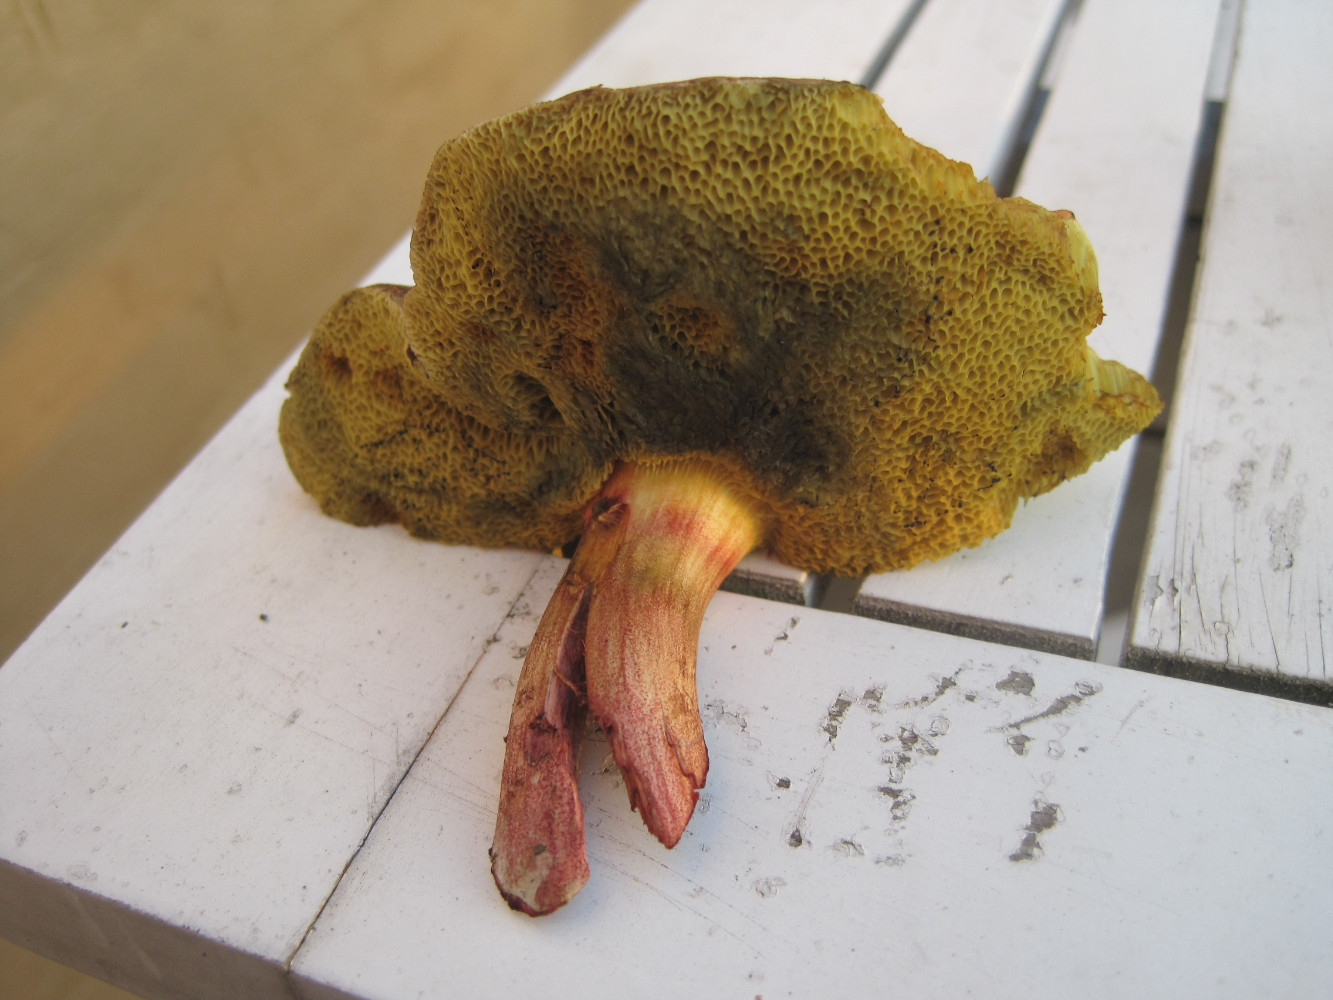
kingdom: Fungi
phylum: Basidiomycota
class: Agaricomycetes
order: Boletales
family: Boletaceae
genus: Xerocomellus
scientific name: Xerocomellus chrysenteron
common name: rødsprukken rørhat
